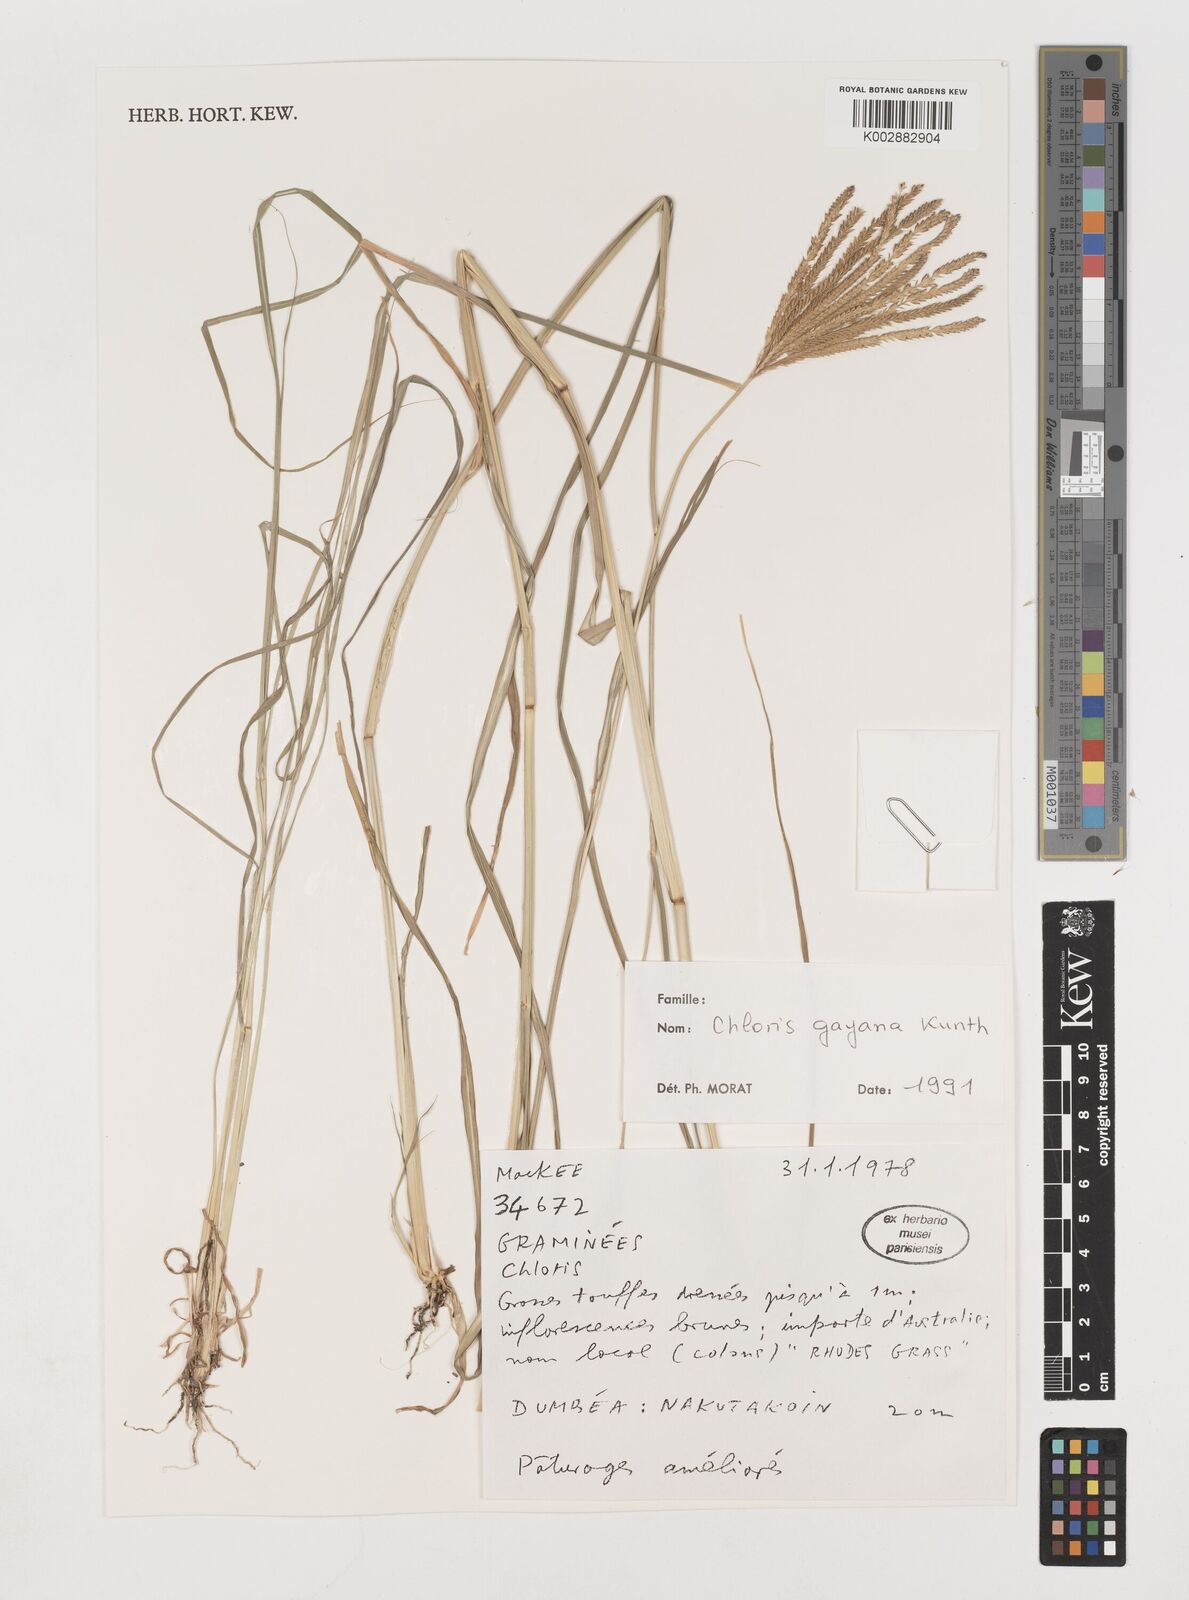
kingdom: Plantae
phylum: Tracheophyta
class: Liliopsida
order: Poales
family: Poaceae
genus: Chloris
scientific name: Chloris gayana
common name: Rhodes grass
